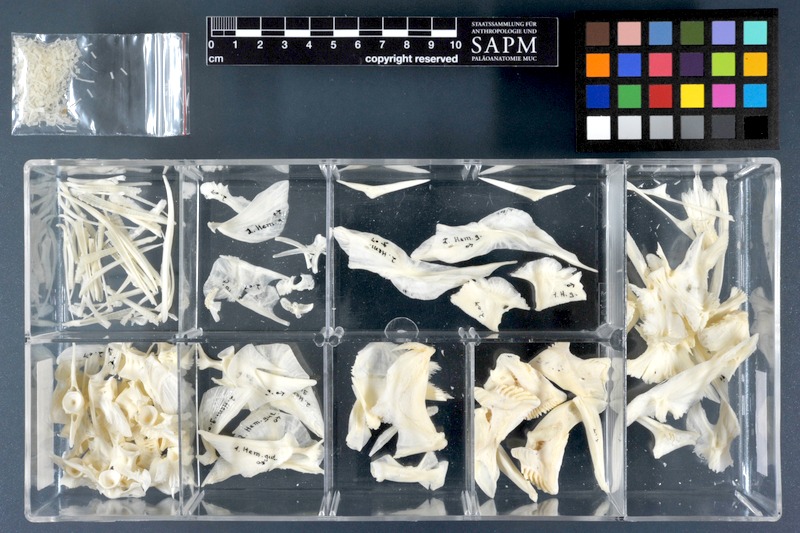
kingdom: Animalia
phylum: Chordata
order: Tetraodontiformes
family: Tetraodontidae
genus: Ephippion
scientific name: Ephippion guttifer
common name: Common puffer
